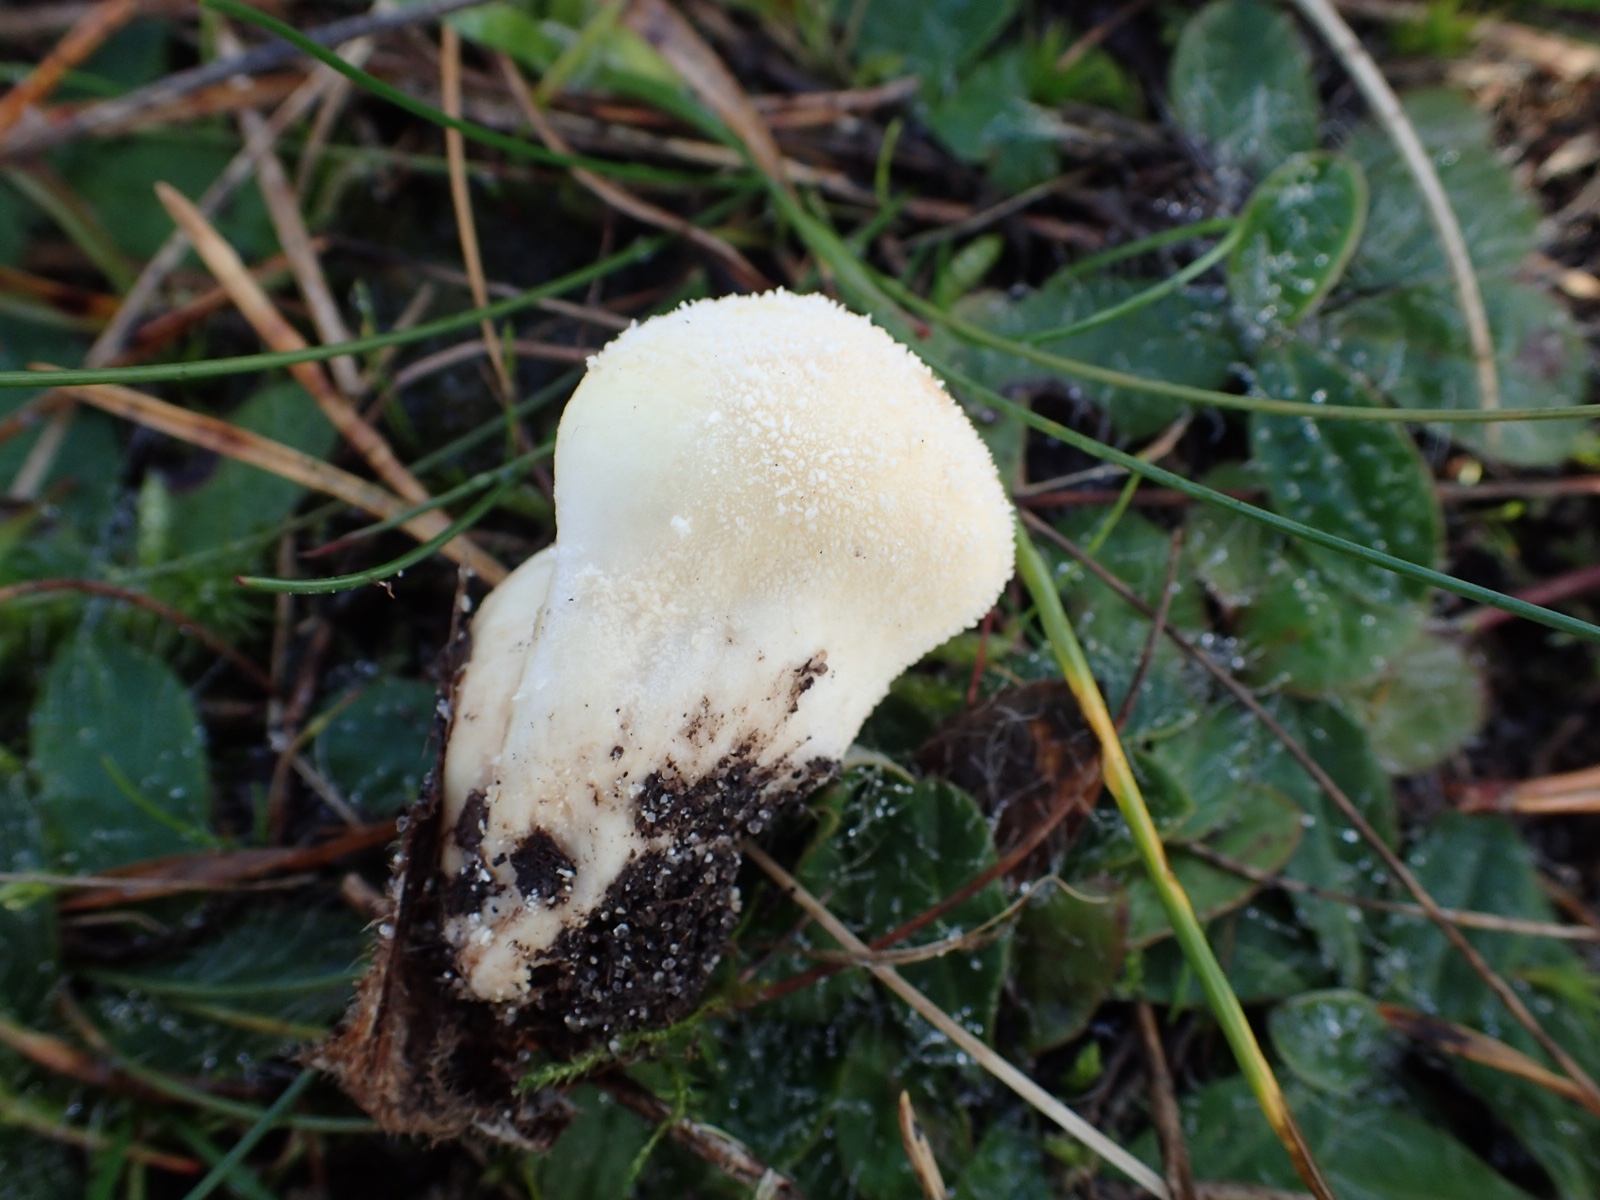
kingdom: Fungi
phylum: Basidiomycota
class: Agaricomycetes
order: Agaricales
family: Lycoperdaceae
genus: Lycoperdon
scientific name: Lycoperdon pratense
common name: flad støvbold
